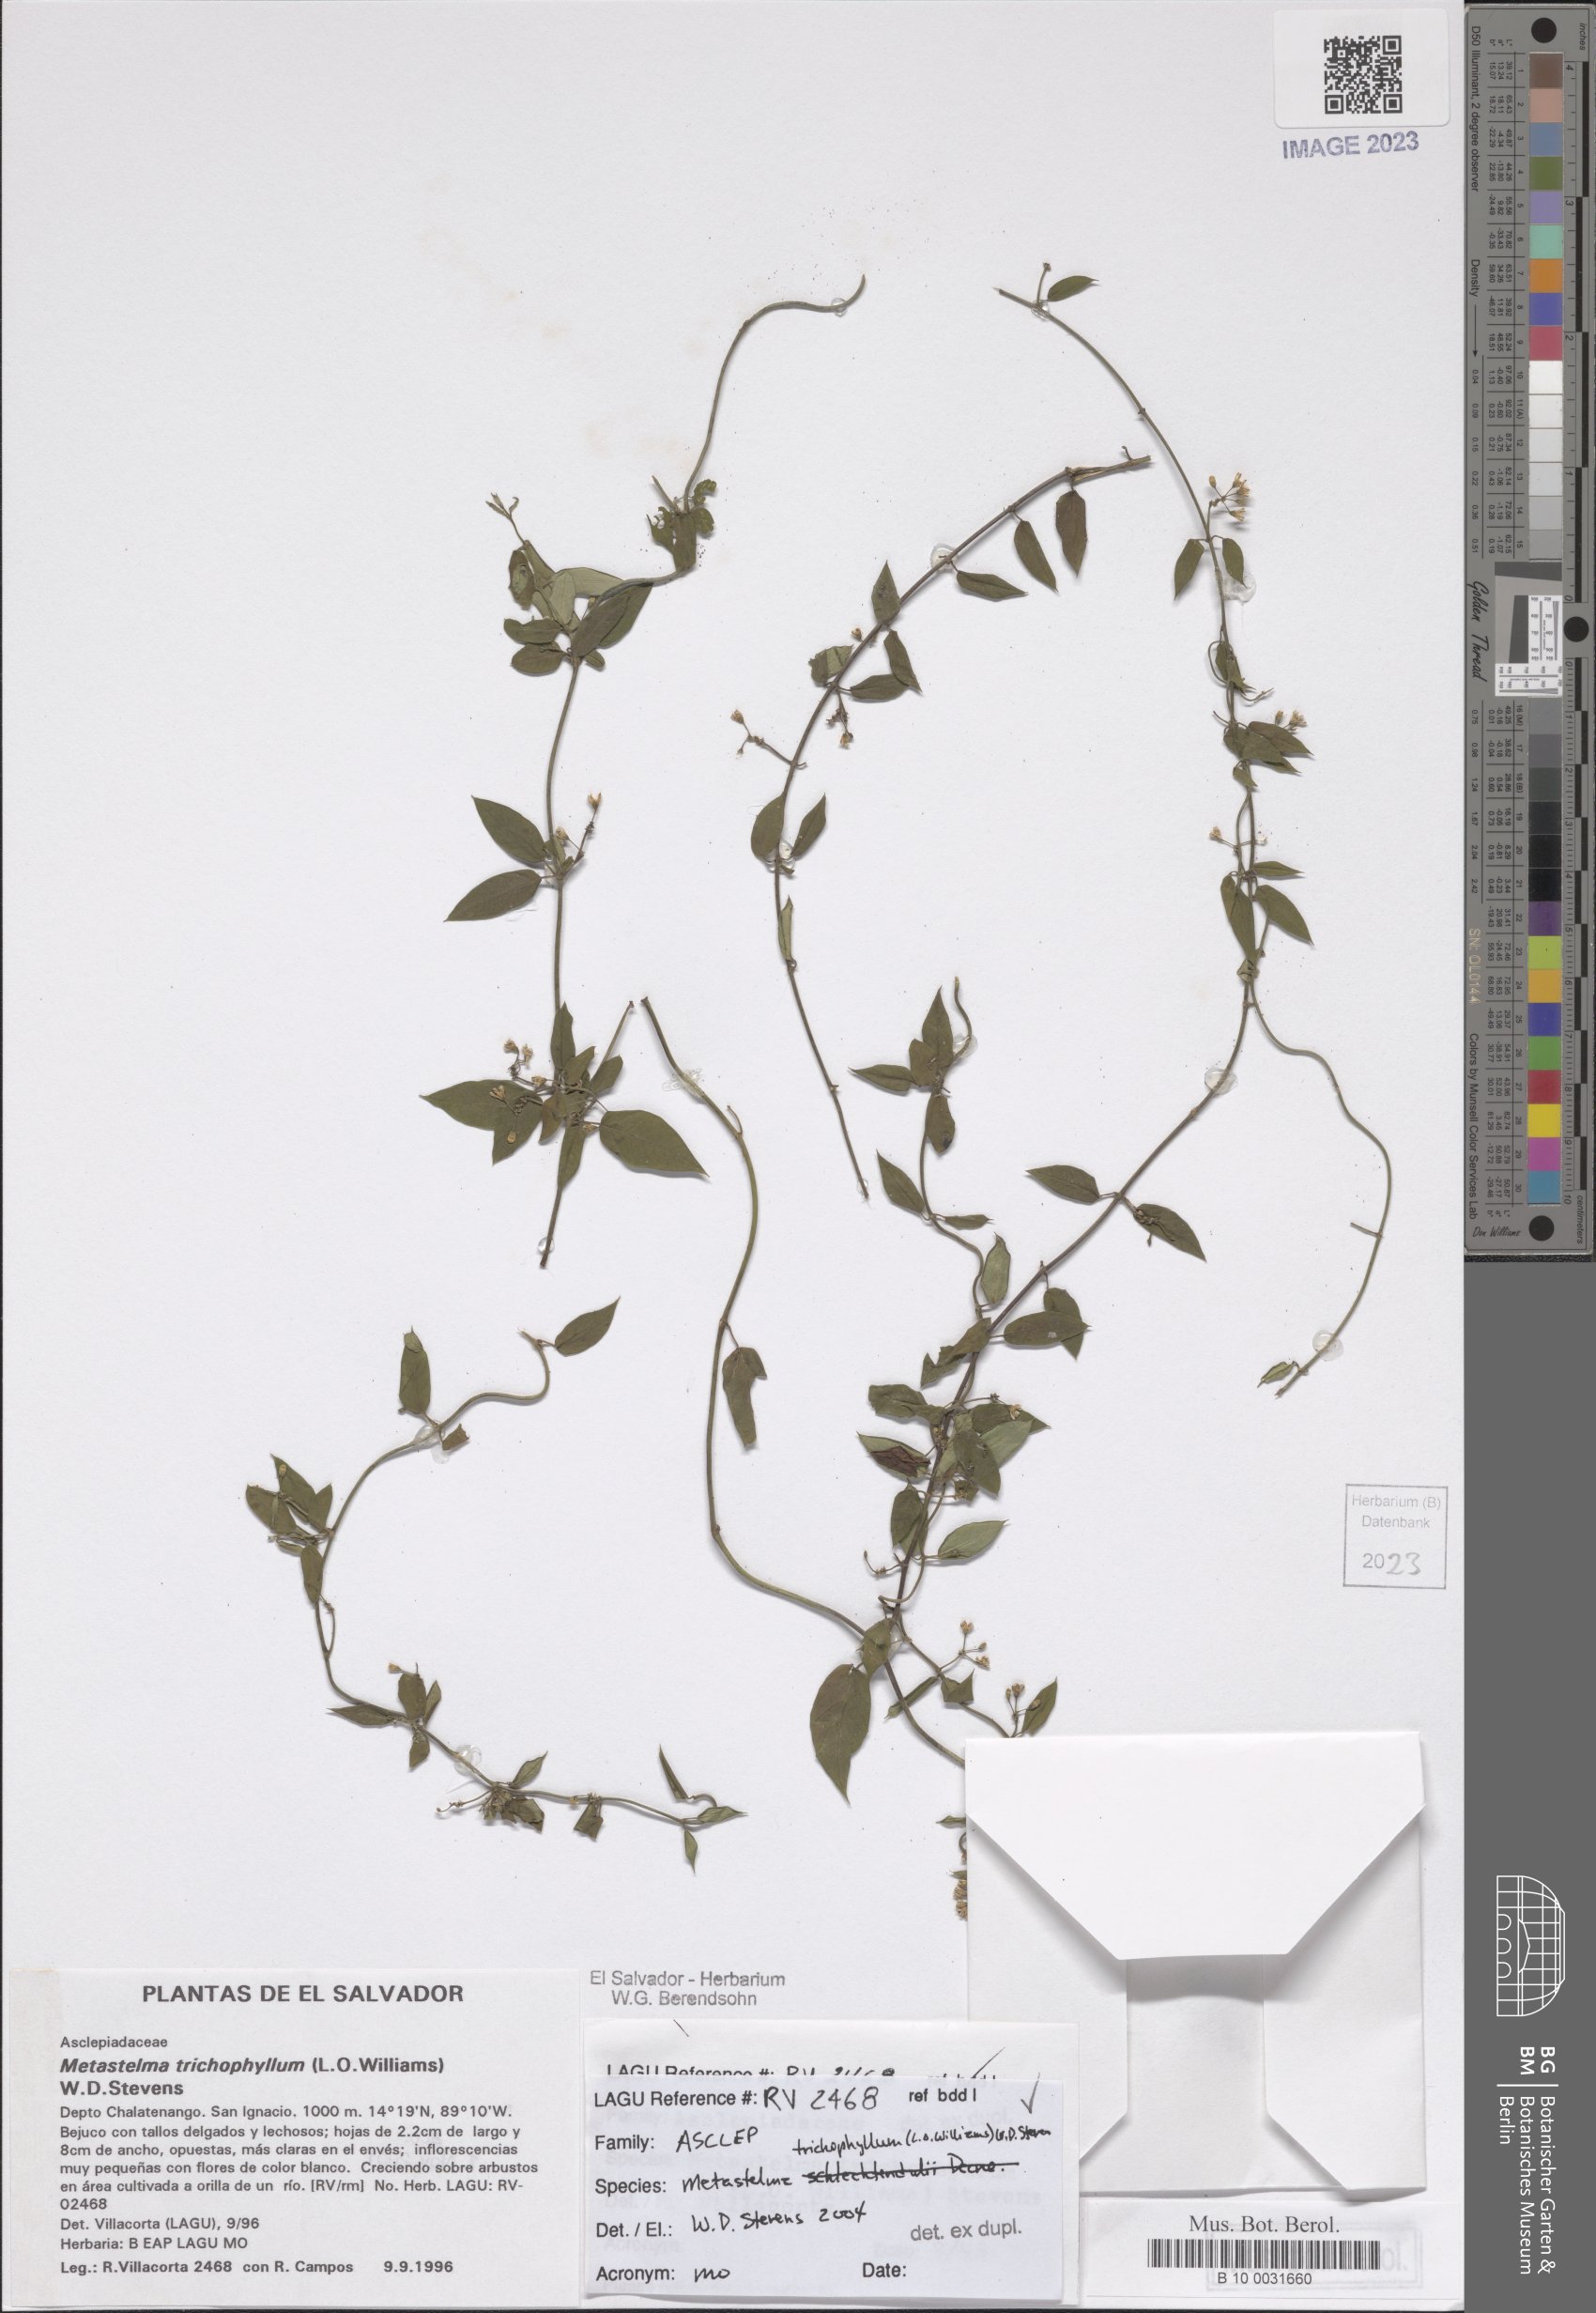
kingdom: Plantae
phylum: Tracheophyta
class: Magnoliopsida
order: Gentianales
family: Apocynaceae
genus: Metastelma
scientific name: Metastelma schlechtendalii
